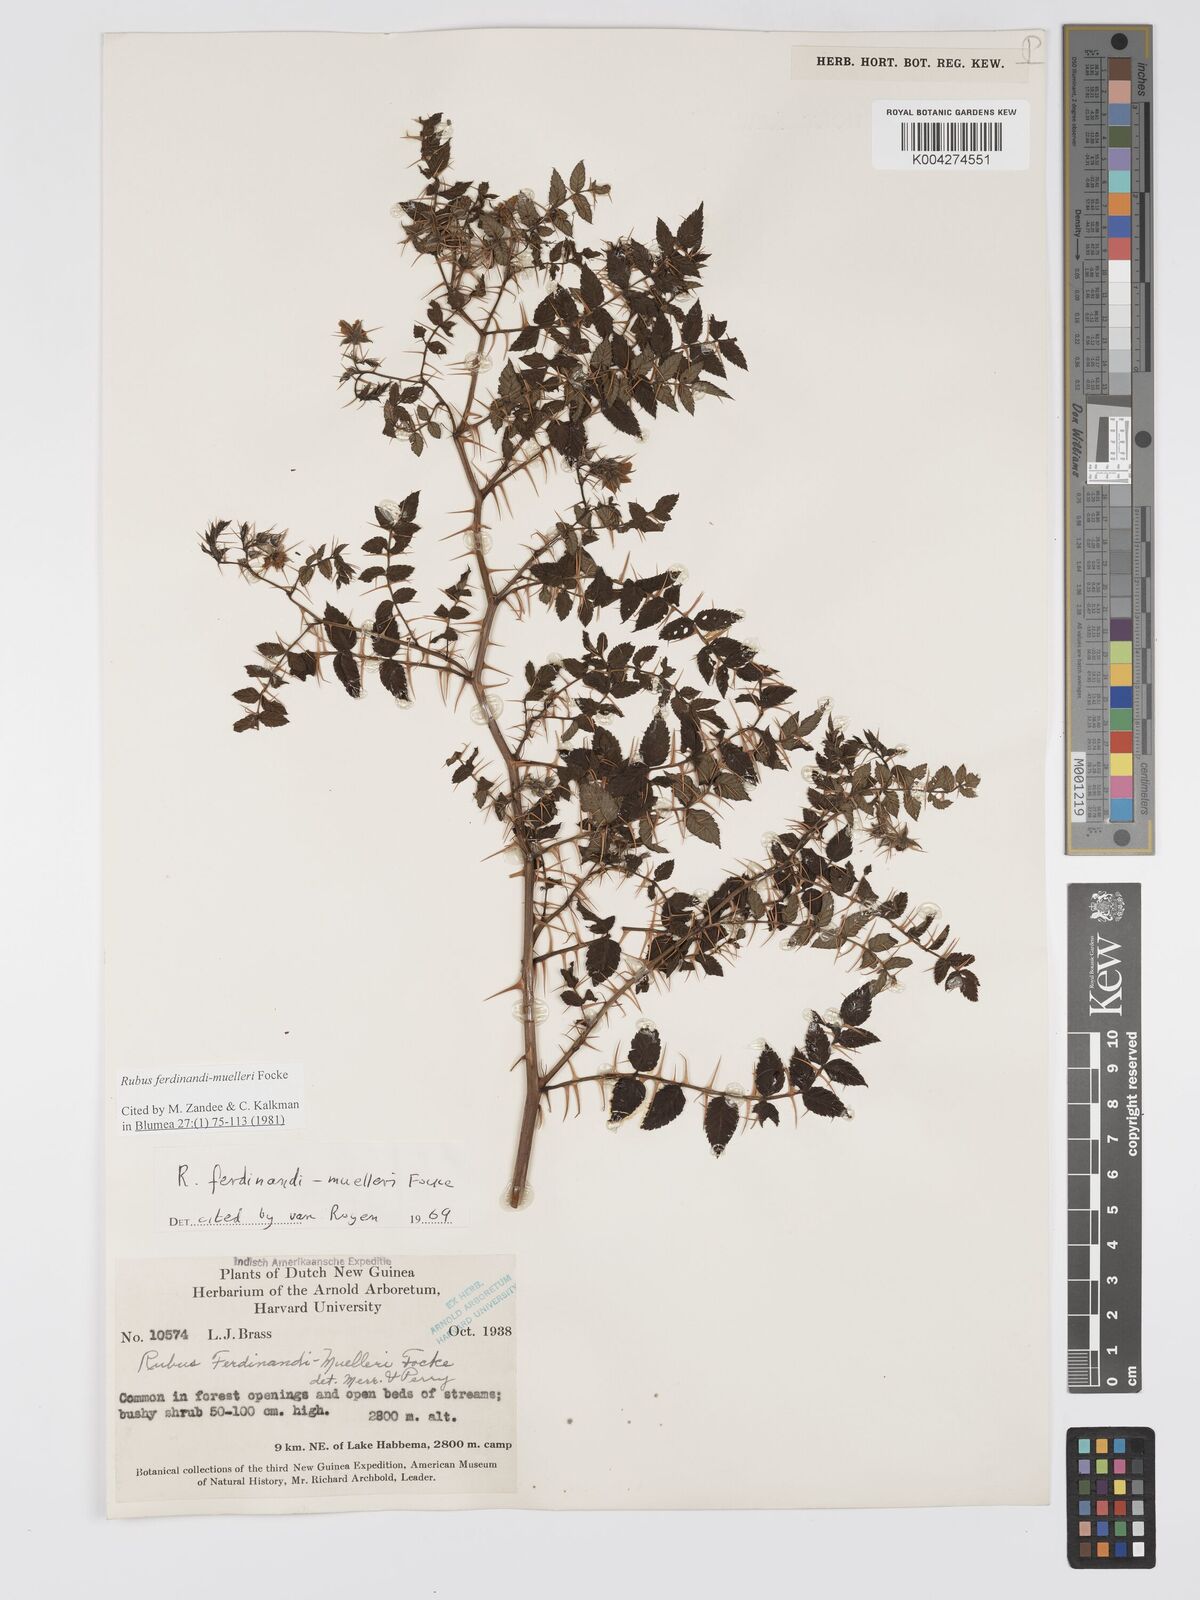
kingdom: Plantae
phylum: Tracheophyta
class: Magnoliopsida
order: Rosales
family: Rosaceae
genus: Rubus
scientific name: Rubus ferdinandimuelleri
